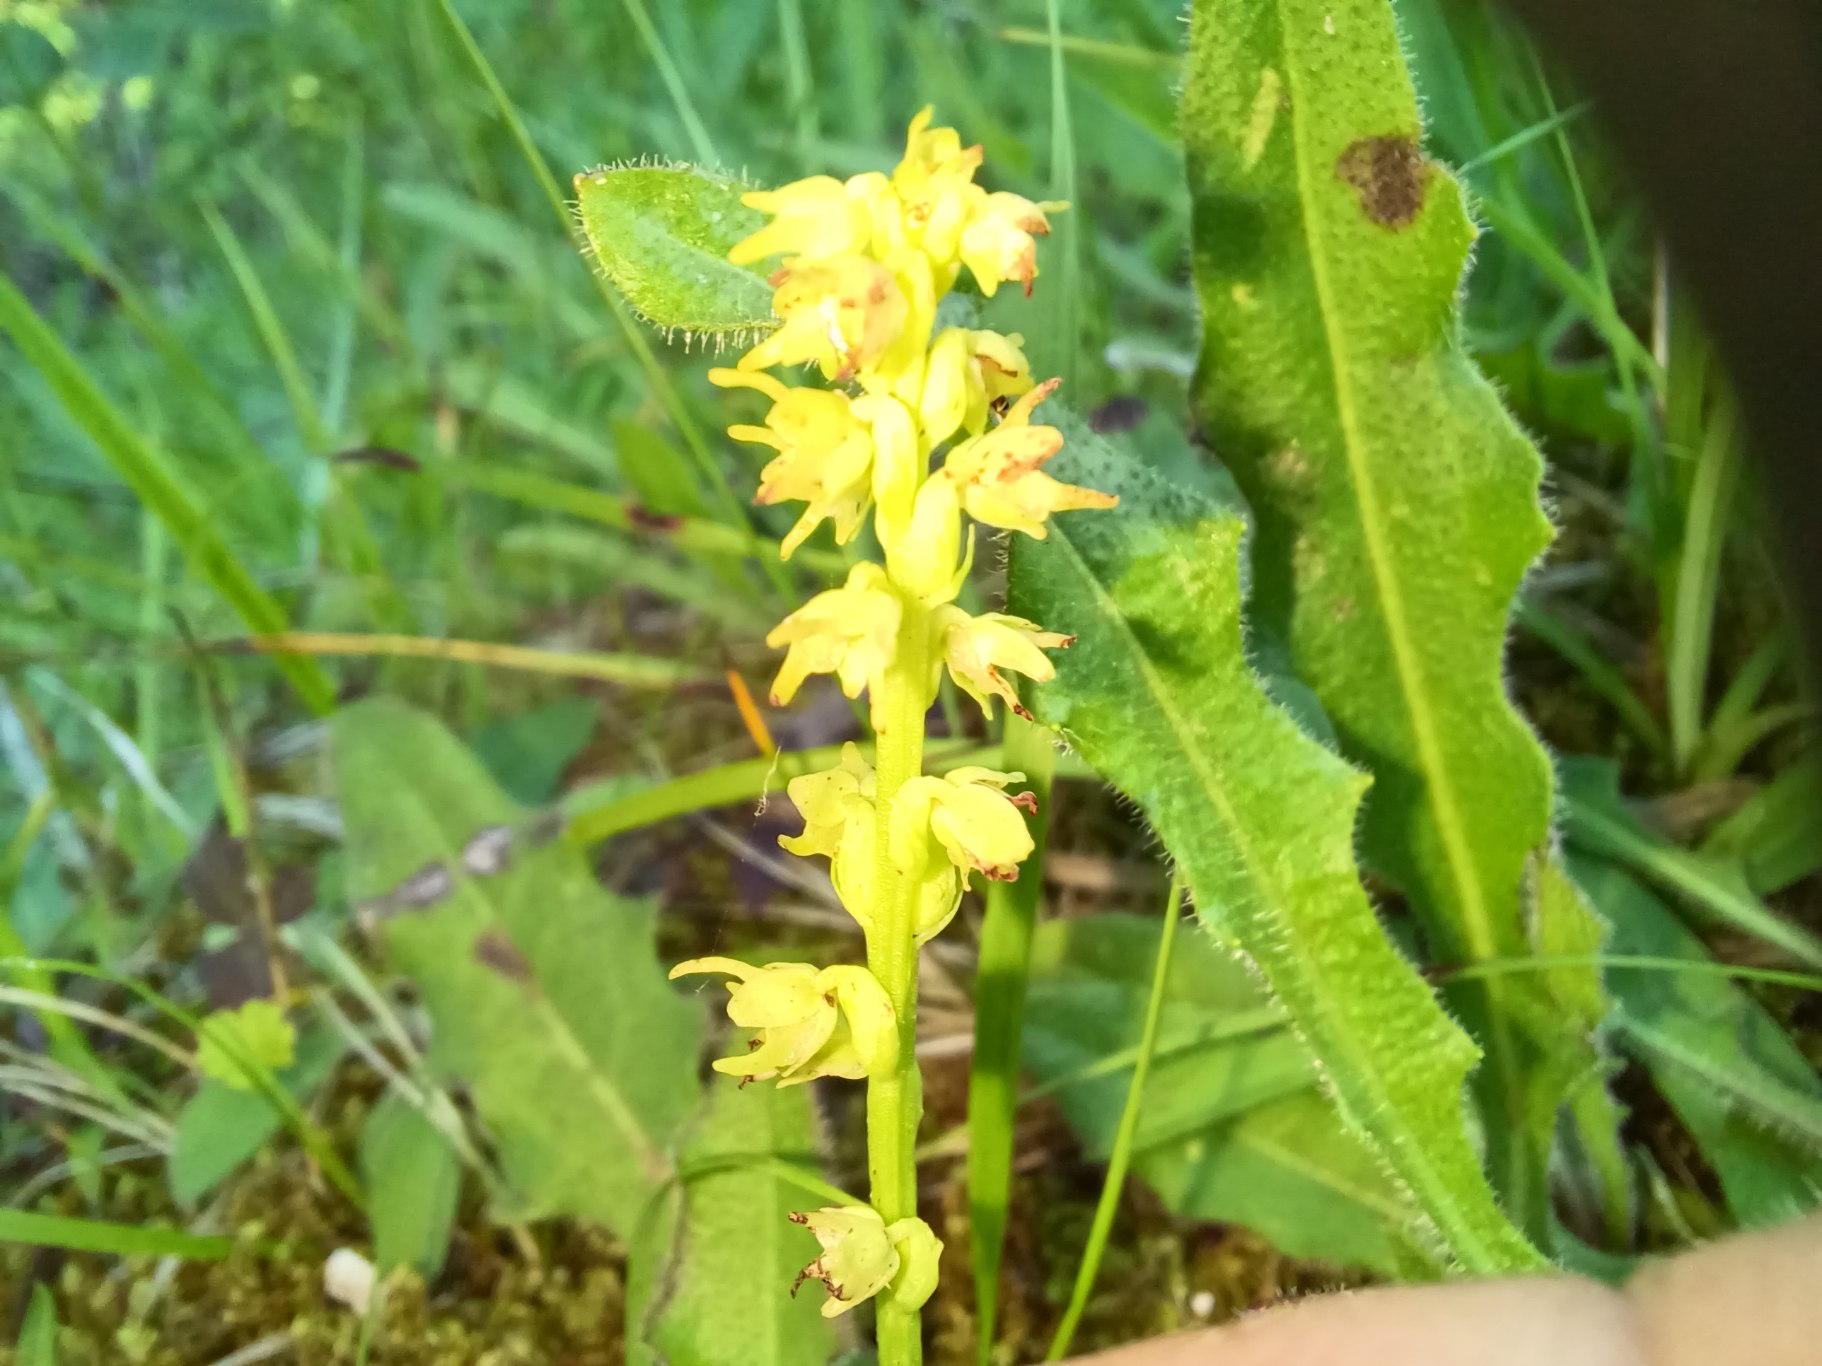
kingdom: Plantae
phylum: Tracheophyta
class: Liliopsida
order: Asparagales
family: Orchidaceae
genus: Herminium
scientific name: Herminium monorchis
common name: Pukkellæbe
